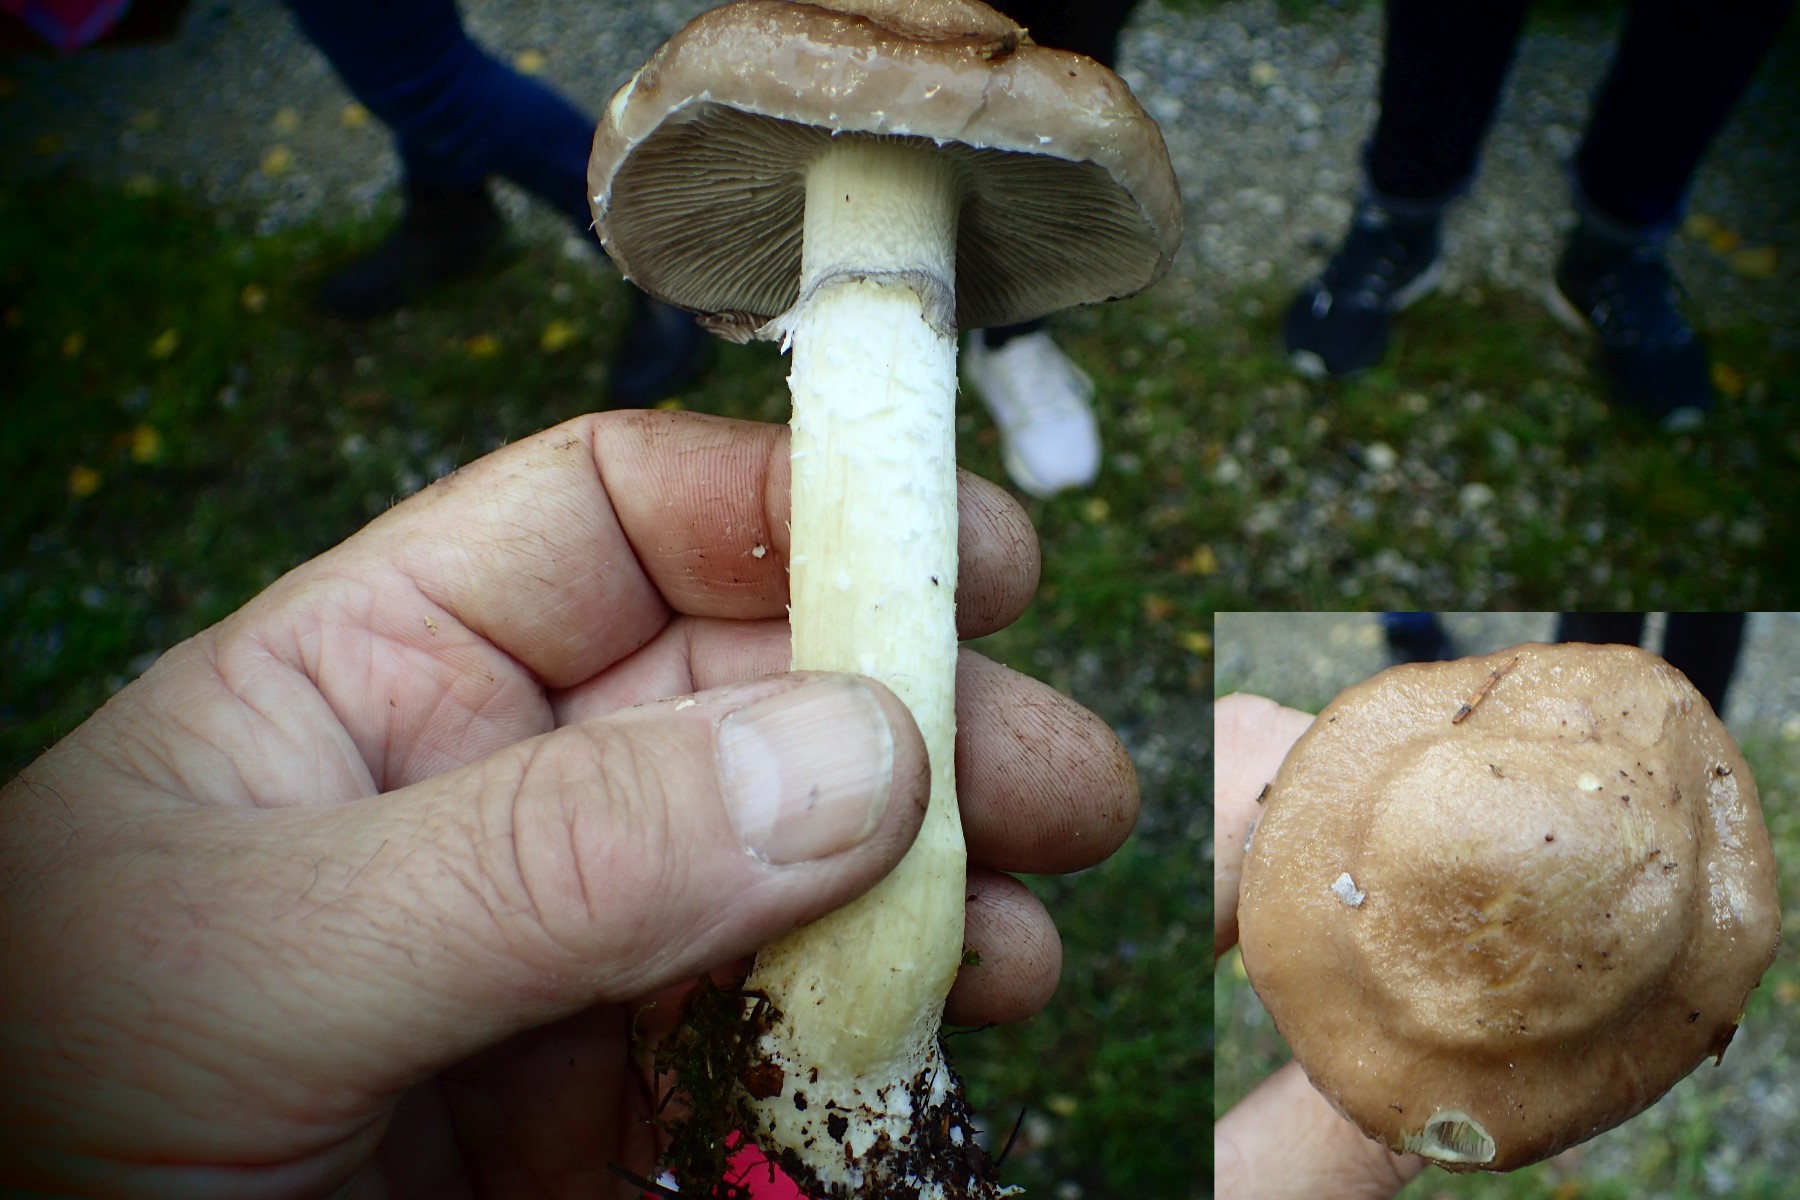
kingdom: Fungi
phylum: Basidiomycota
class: Agaricomycetes
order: Agaricales
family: Strophariaceae
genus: Stropharia
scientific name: Stropharia hornemannii
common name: nordisk bredblad
